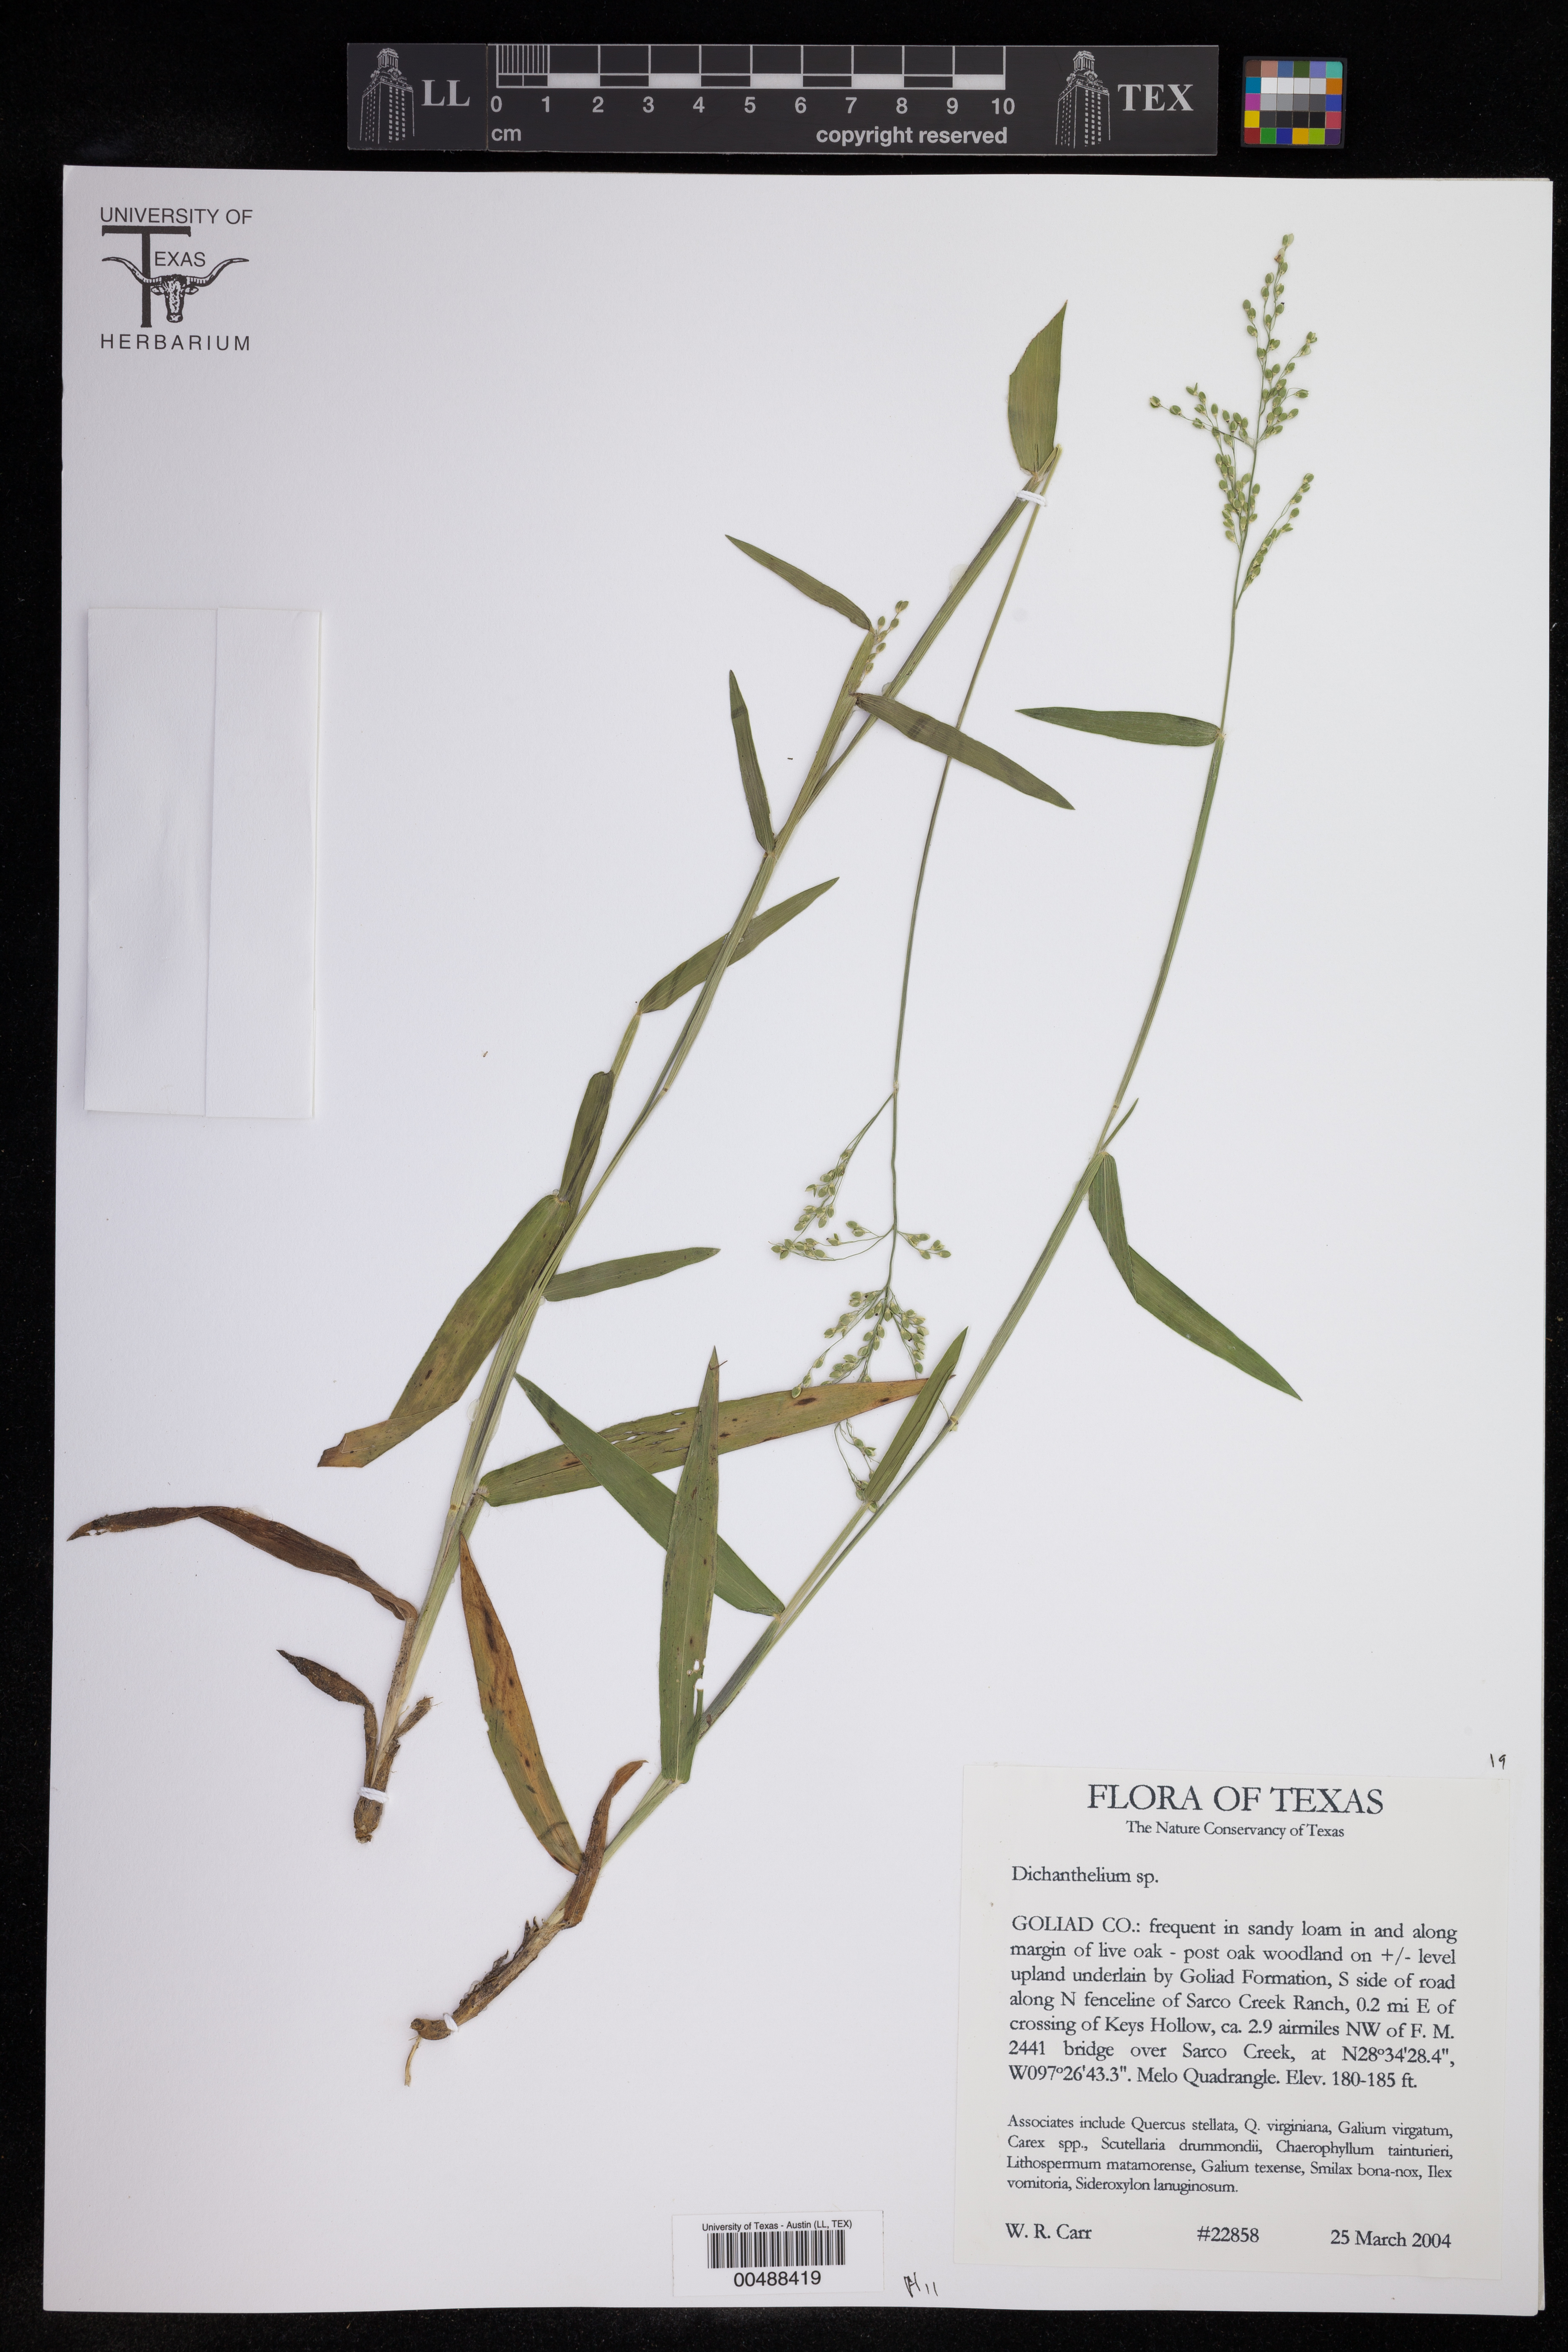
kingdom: Plantae
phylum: Tracheophyta
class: Liliopsida
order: Poales
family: Poaceae
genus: Dichanthelium
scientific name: Dichanthelium
